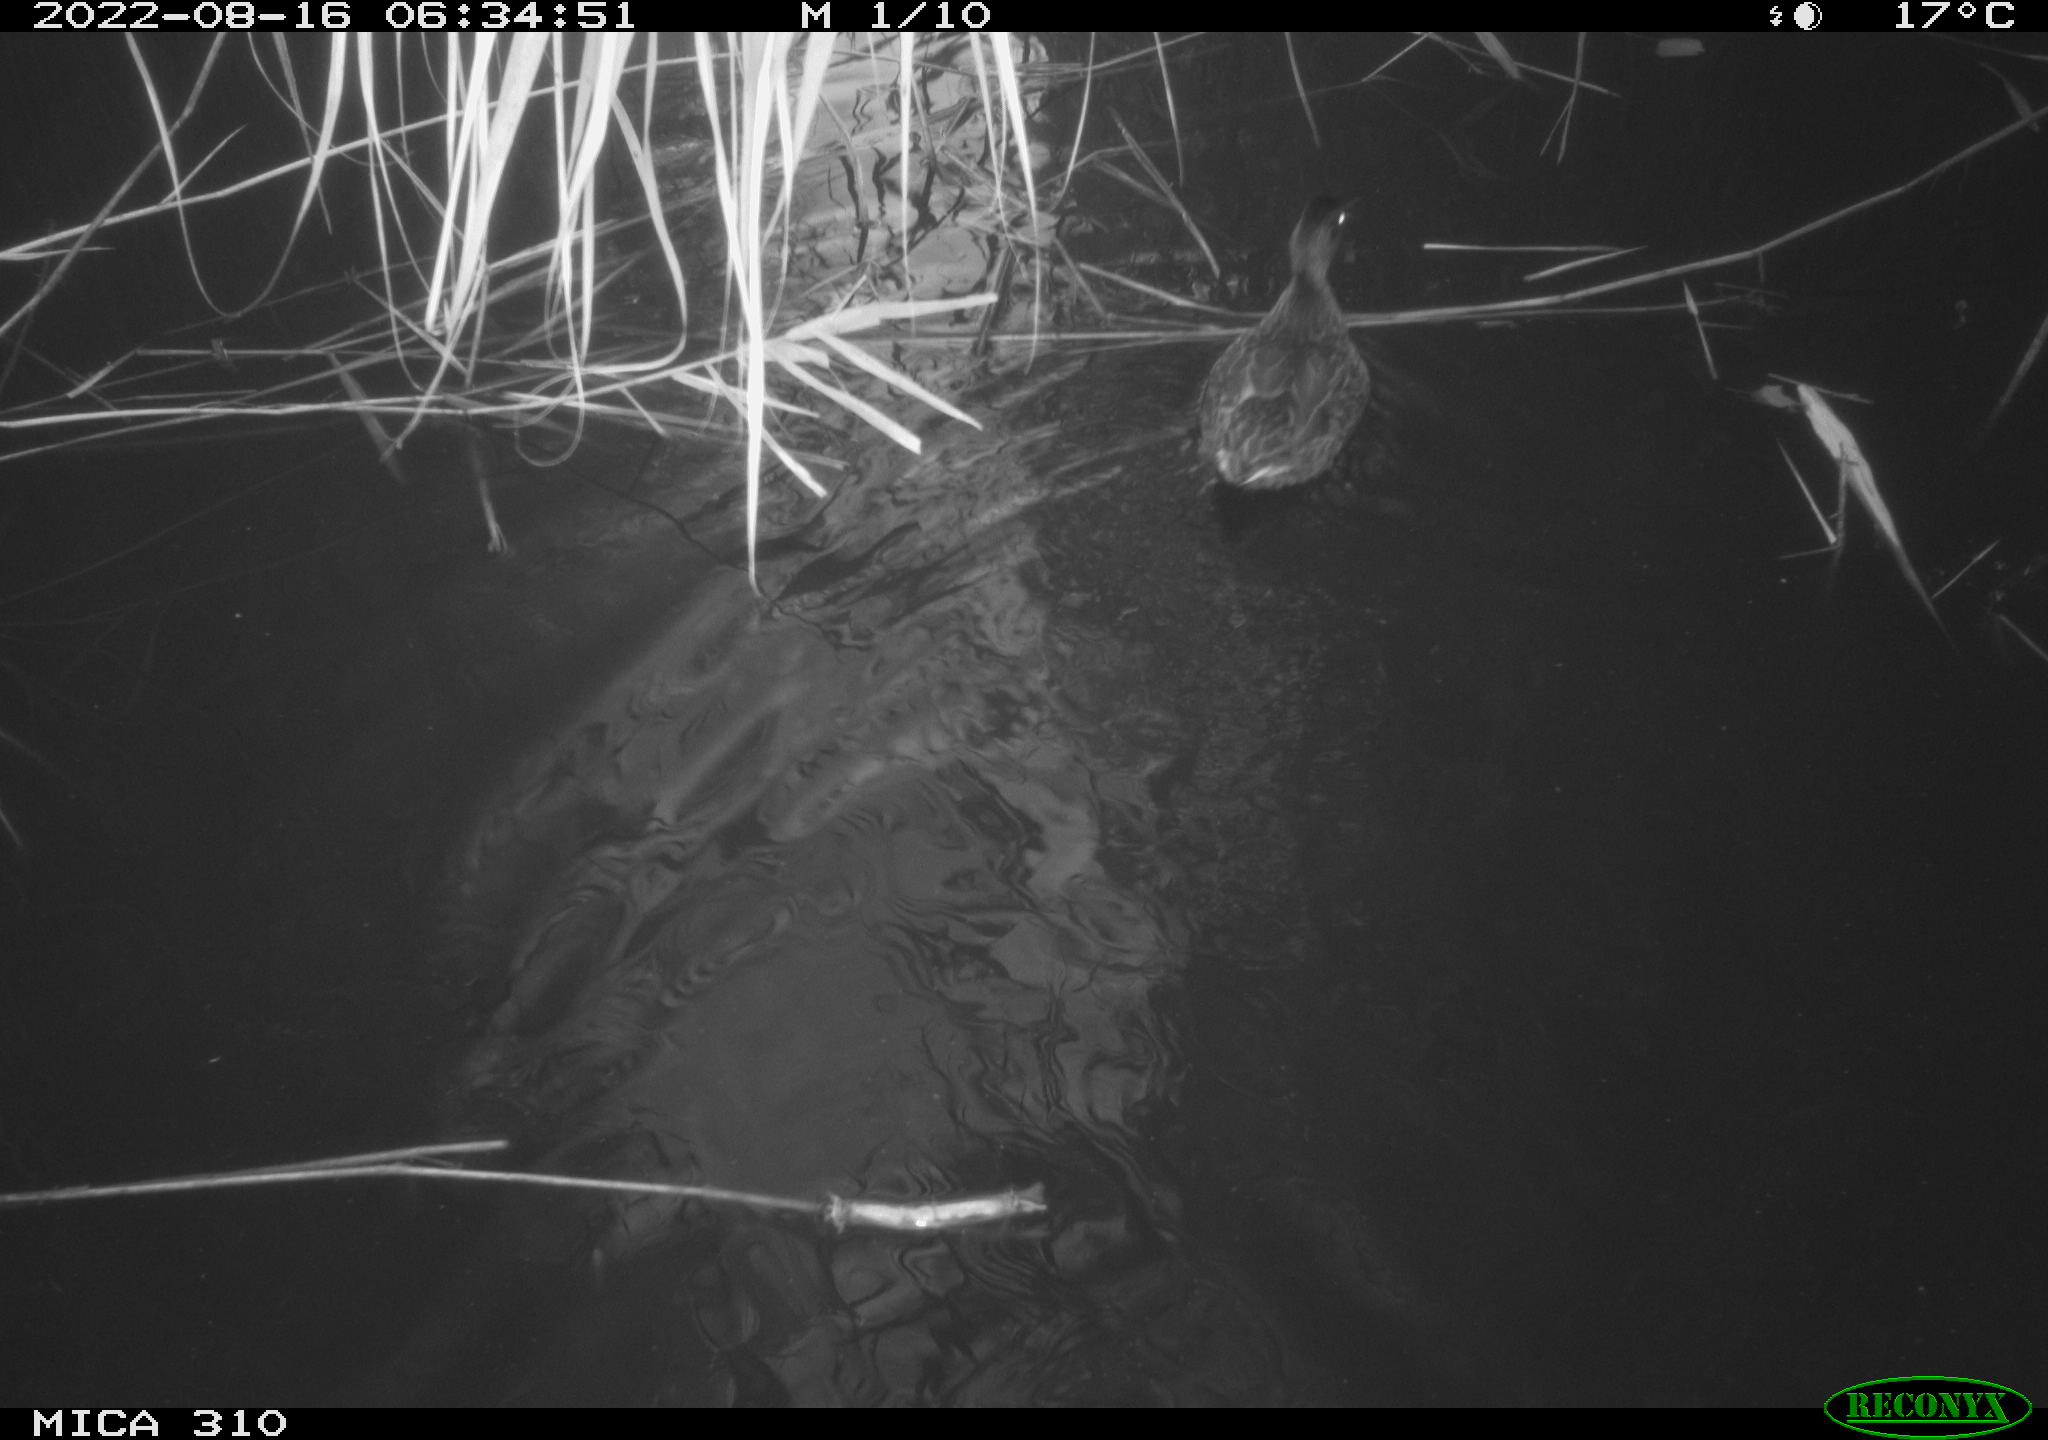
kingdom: Animalia
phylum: Chordata
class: Aves
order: Pelecaniformes
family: Ardeidae
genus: Ardea
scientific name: Ardea
